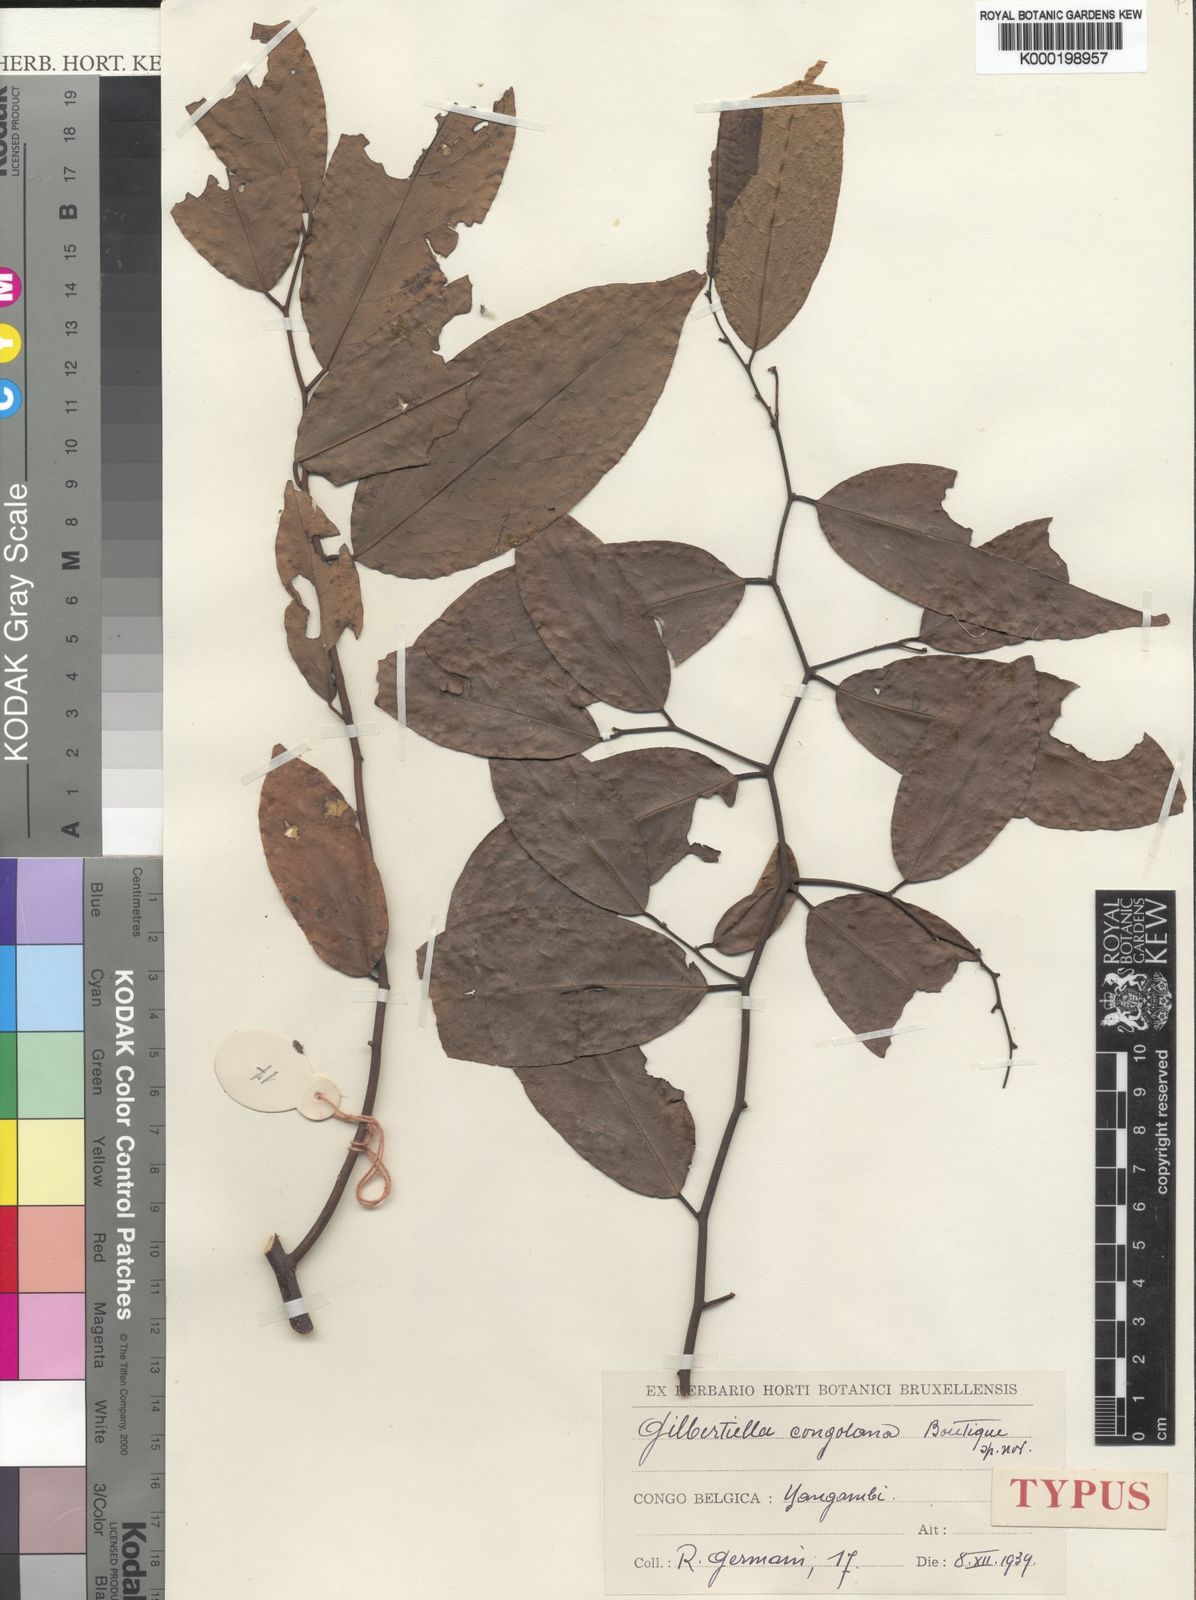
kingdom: Plantae
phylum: Tracheophyta
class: Magnoliopsida
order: Magnoliales
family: Annonaceae
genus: Gilbertiella
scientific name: Gilbertiella congolana
